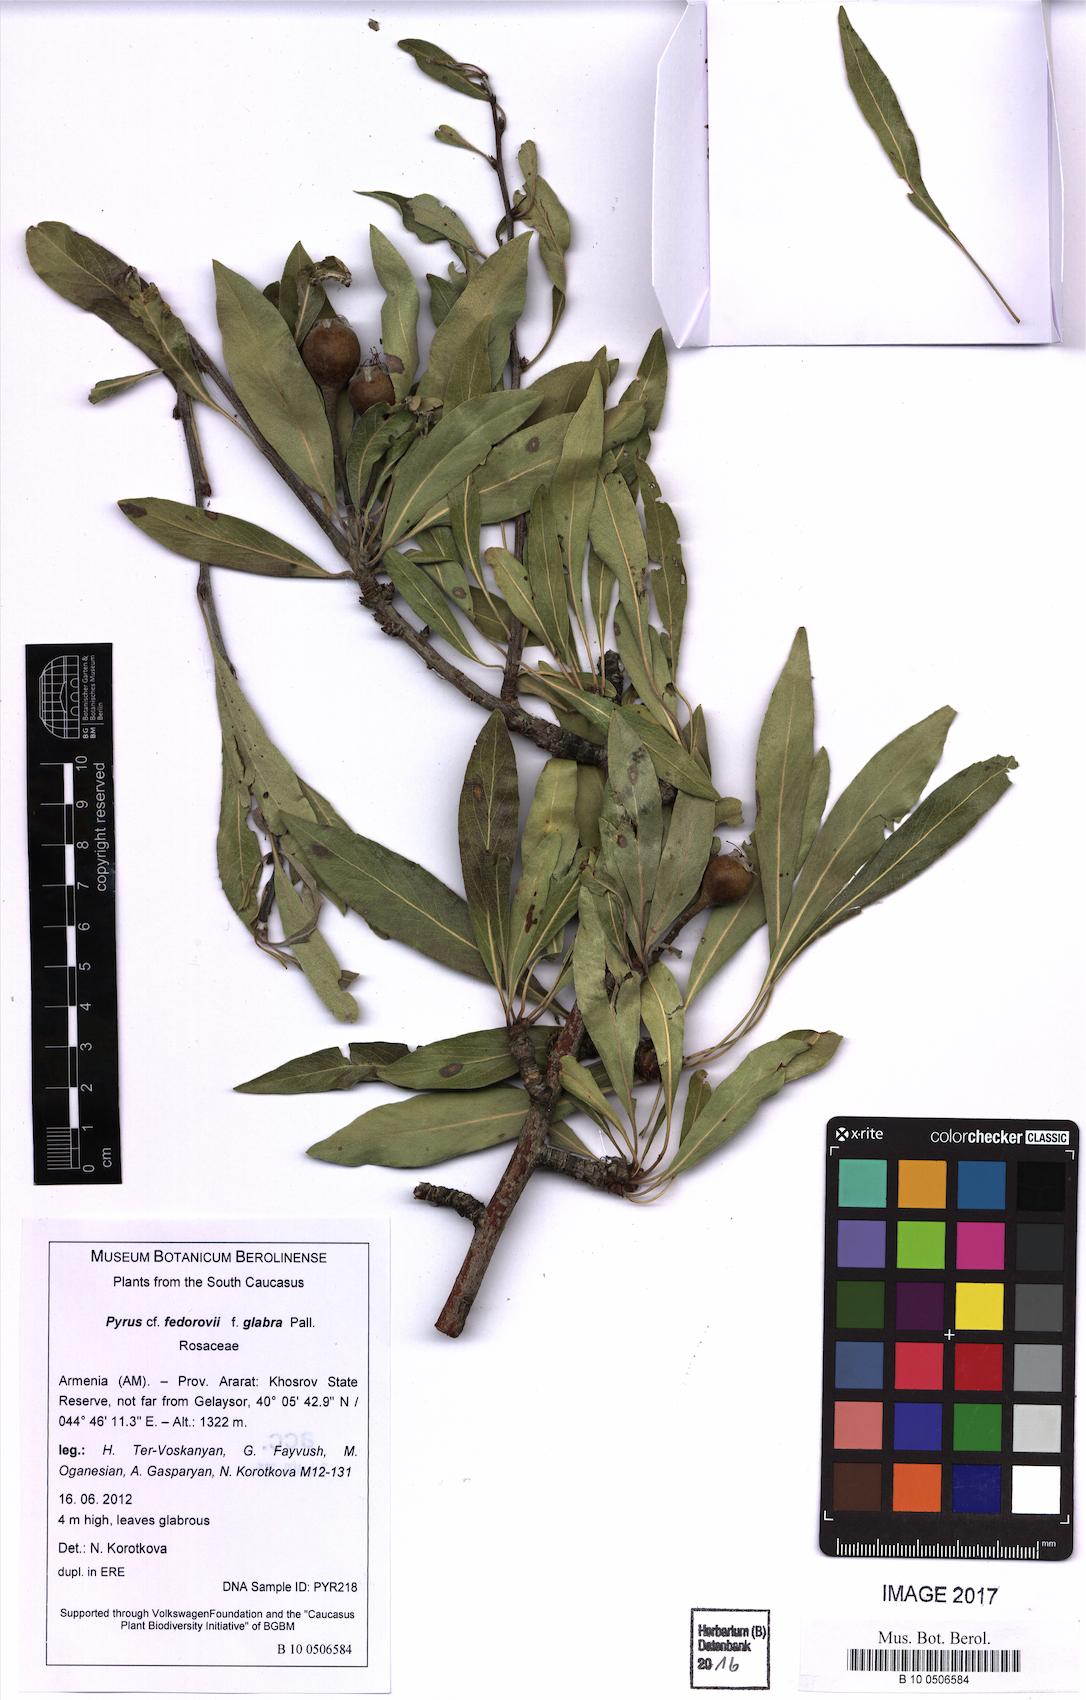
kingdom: Plantae
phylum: Tracheophyta
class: Magnoliopsida
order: Rosales
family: Rosaceae
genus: Pyrus
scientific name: Pyrus zangezura
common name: Zangezurian pear
